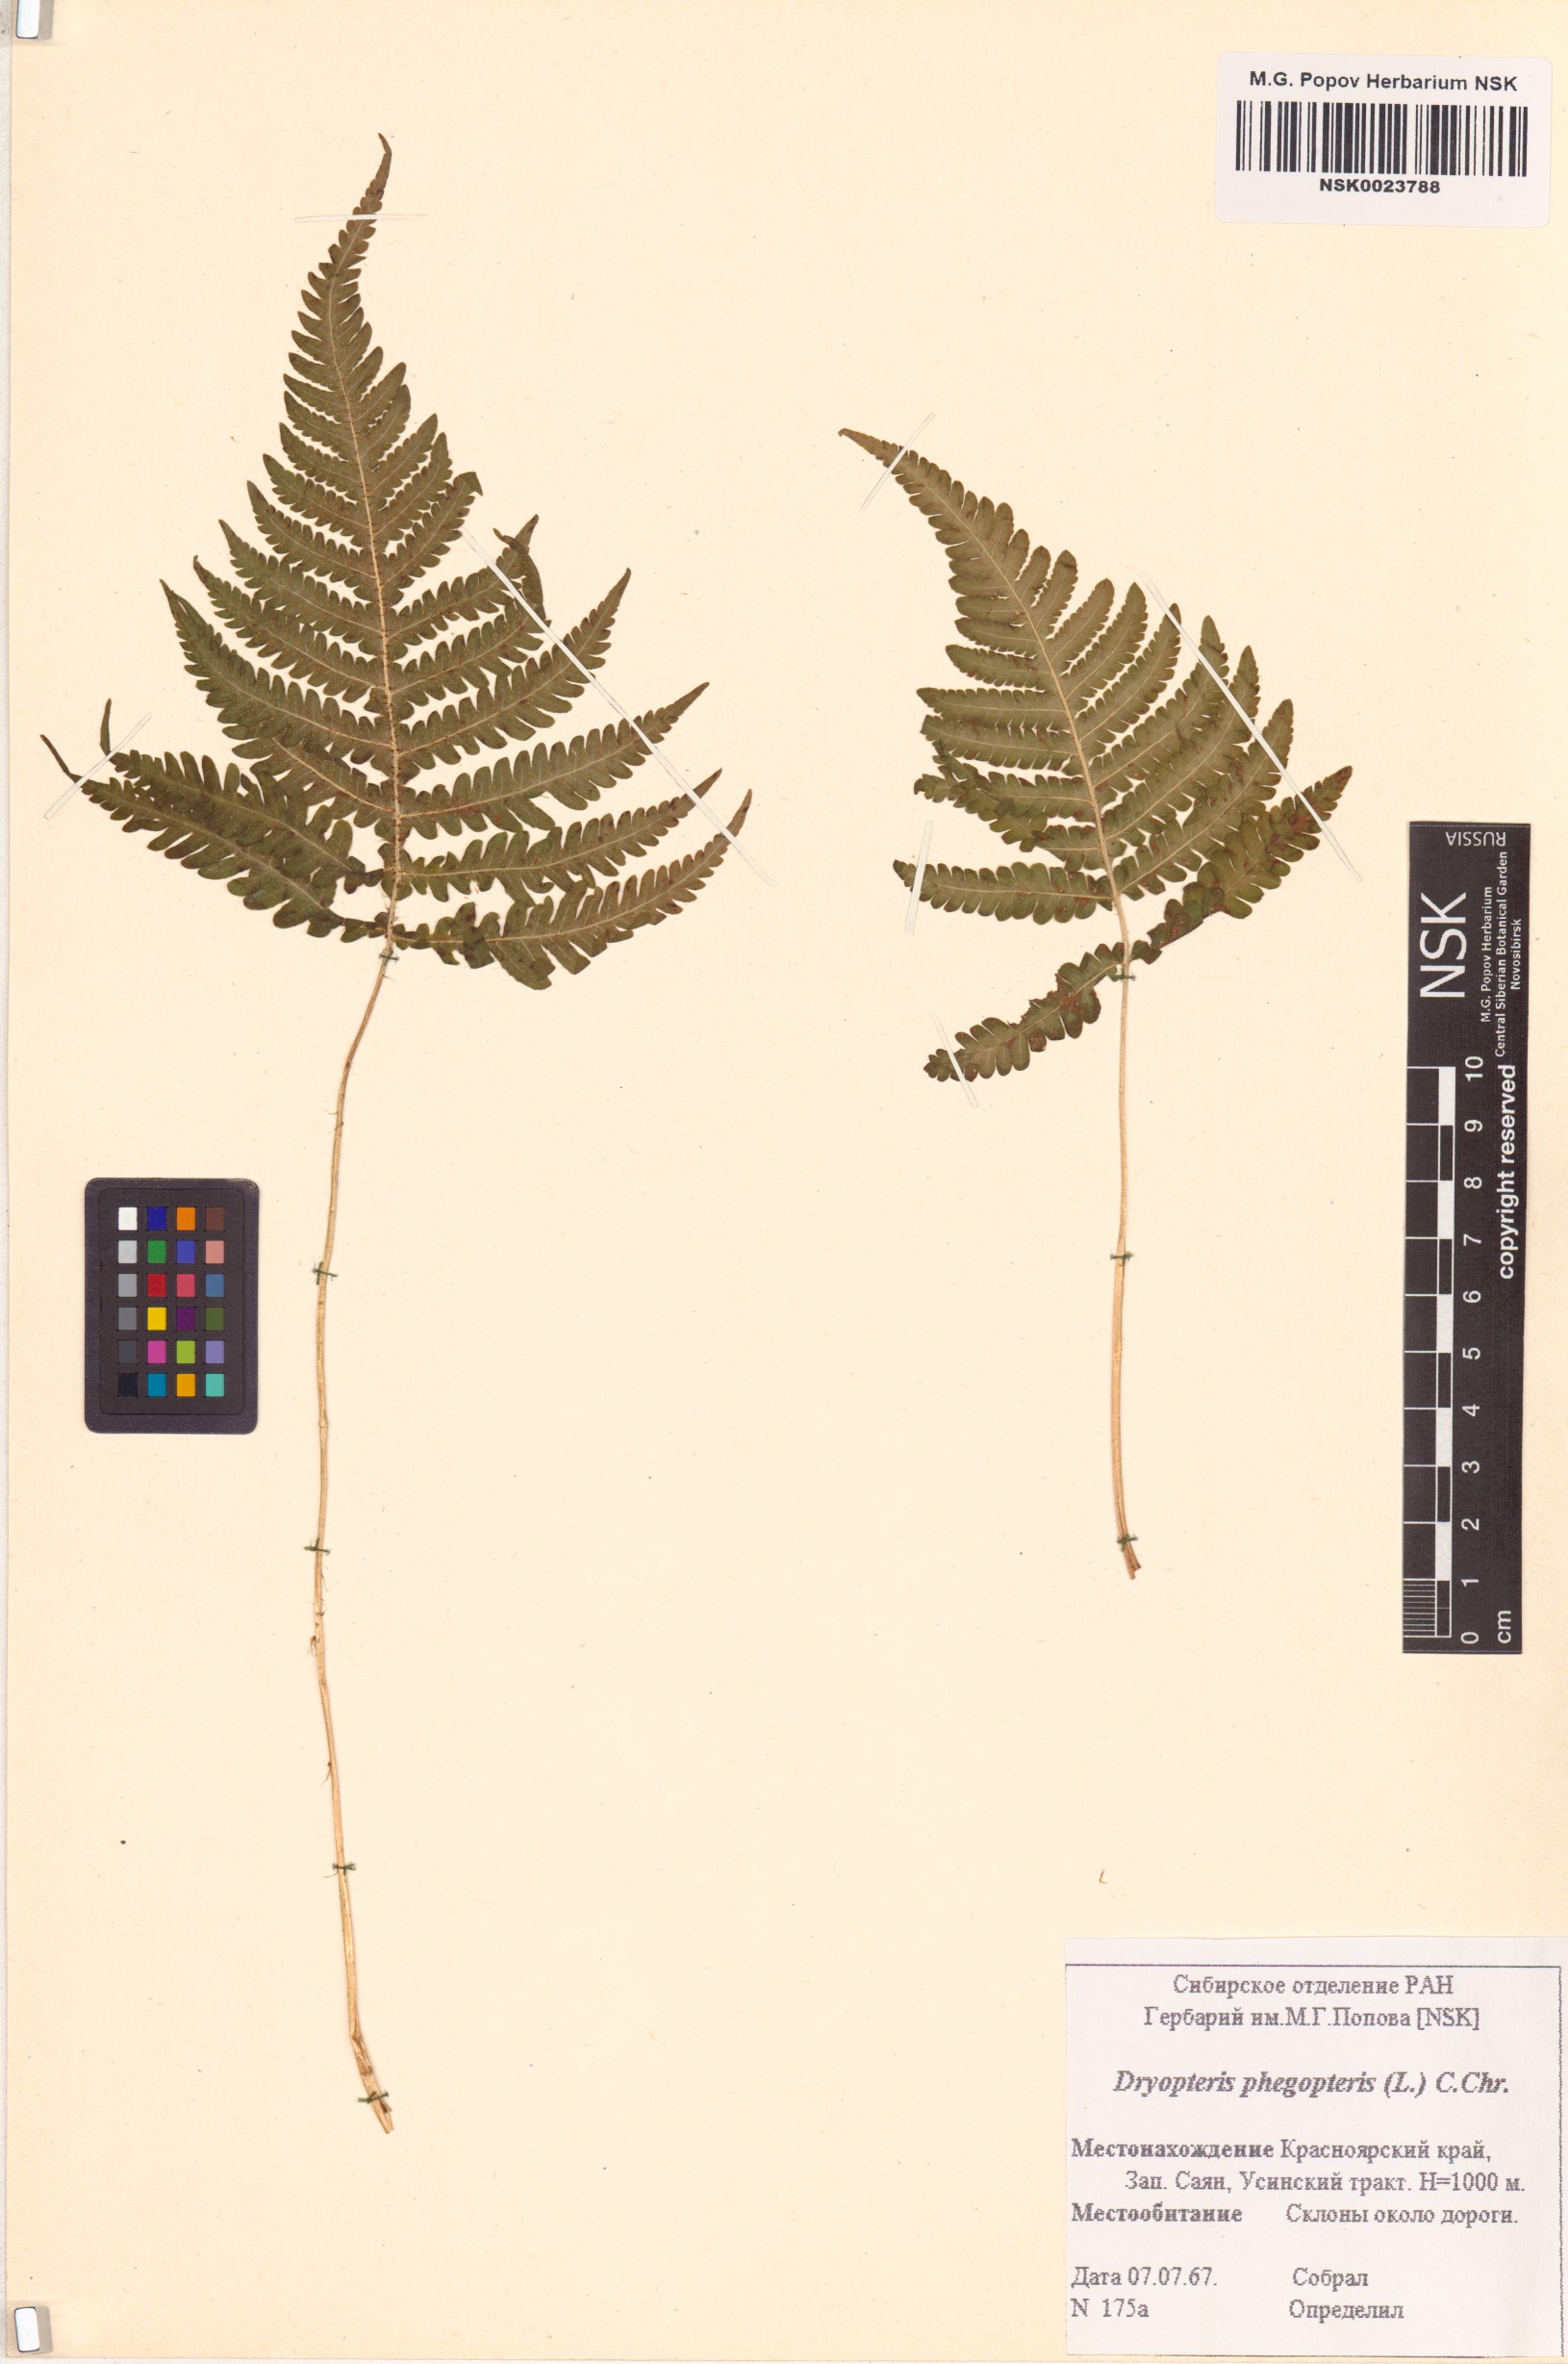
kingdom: Plantae
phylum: Tracheophyta
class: Polypodiopsida
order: Polypodiales
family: Thelypteridaceae
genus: Phegopteris
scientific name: Phegopteris connectilis
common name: Beech fern
